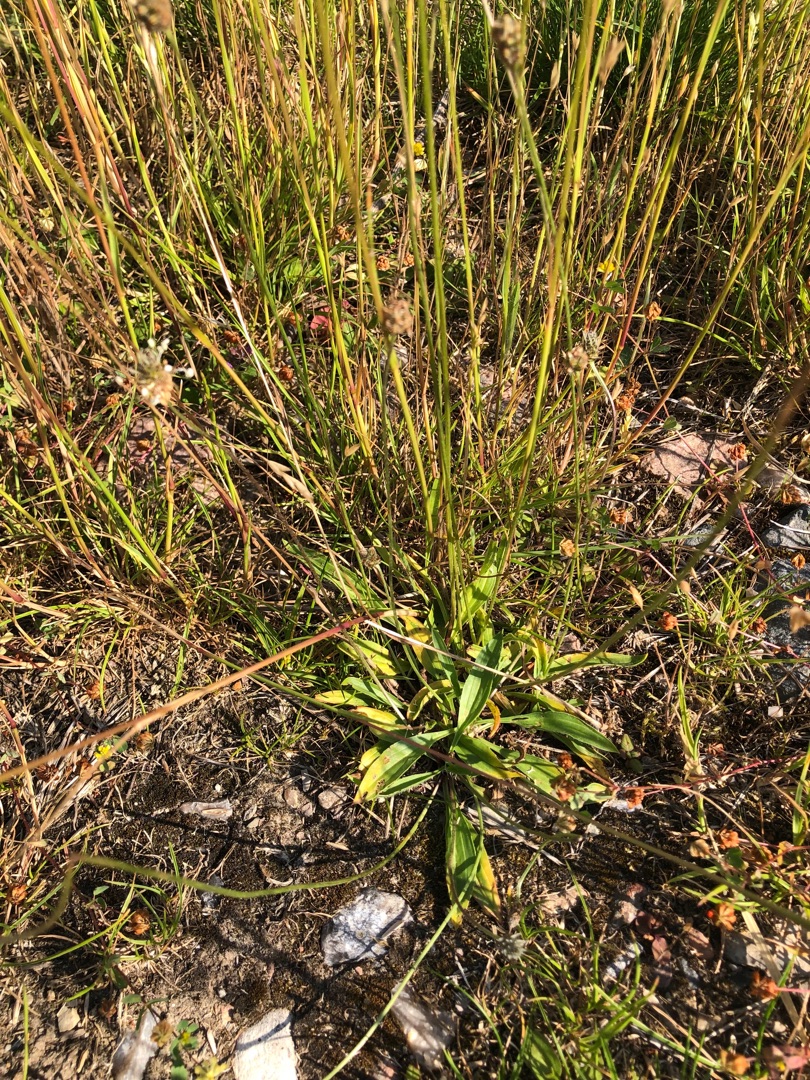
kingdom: Plantae
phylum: Tracheophyta
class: Magnoliopsida
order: Lamiales
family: Plantaginaceae
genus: Plantago
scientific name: Plantago lanceolata
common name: Lancet-vejbred
